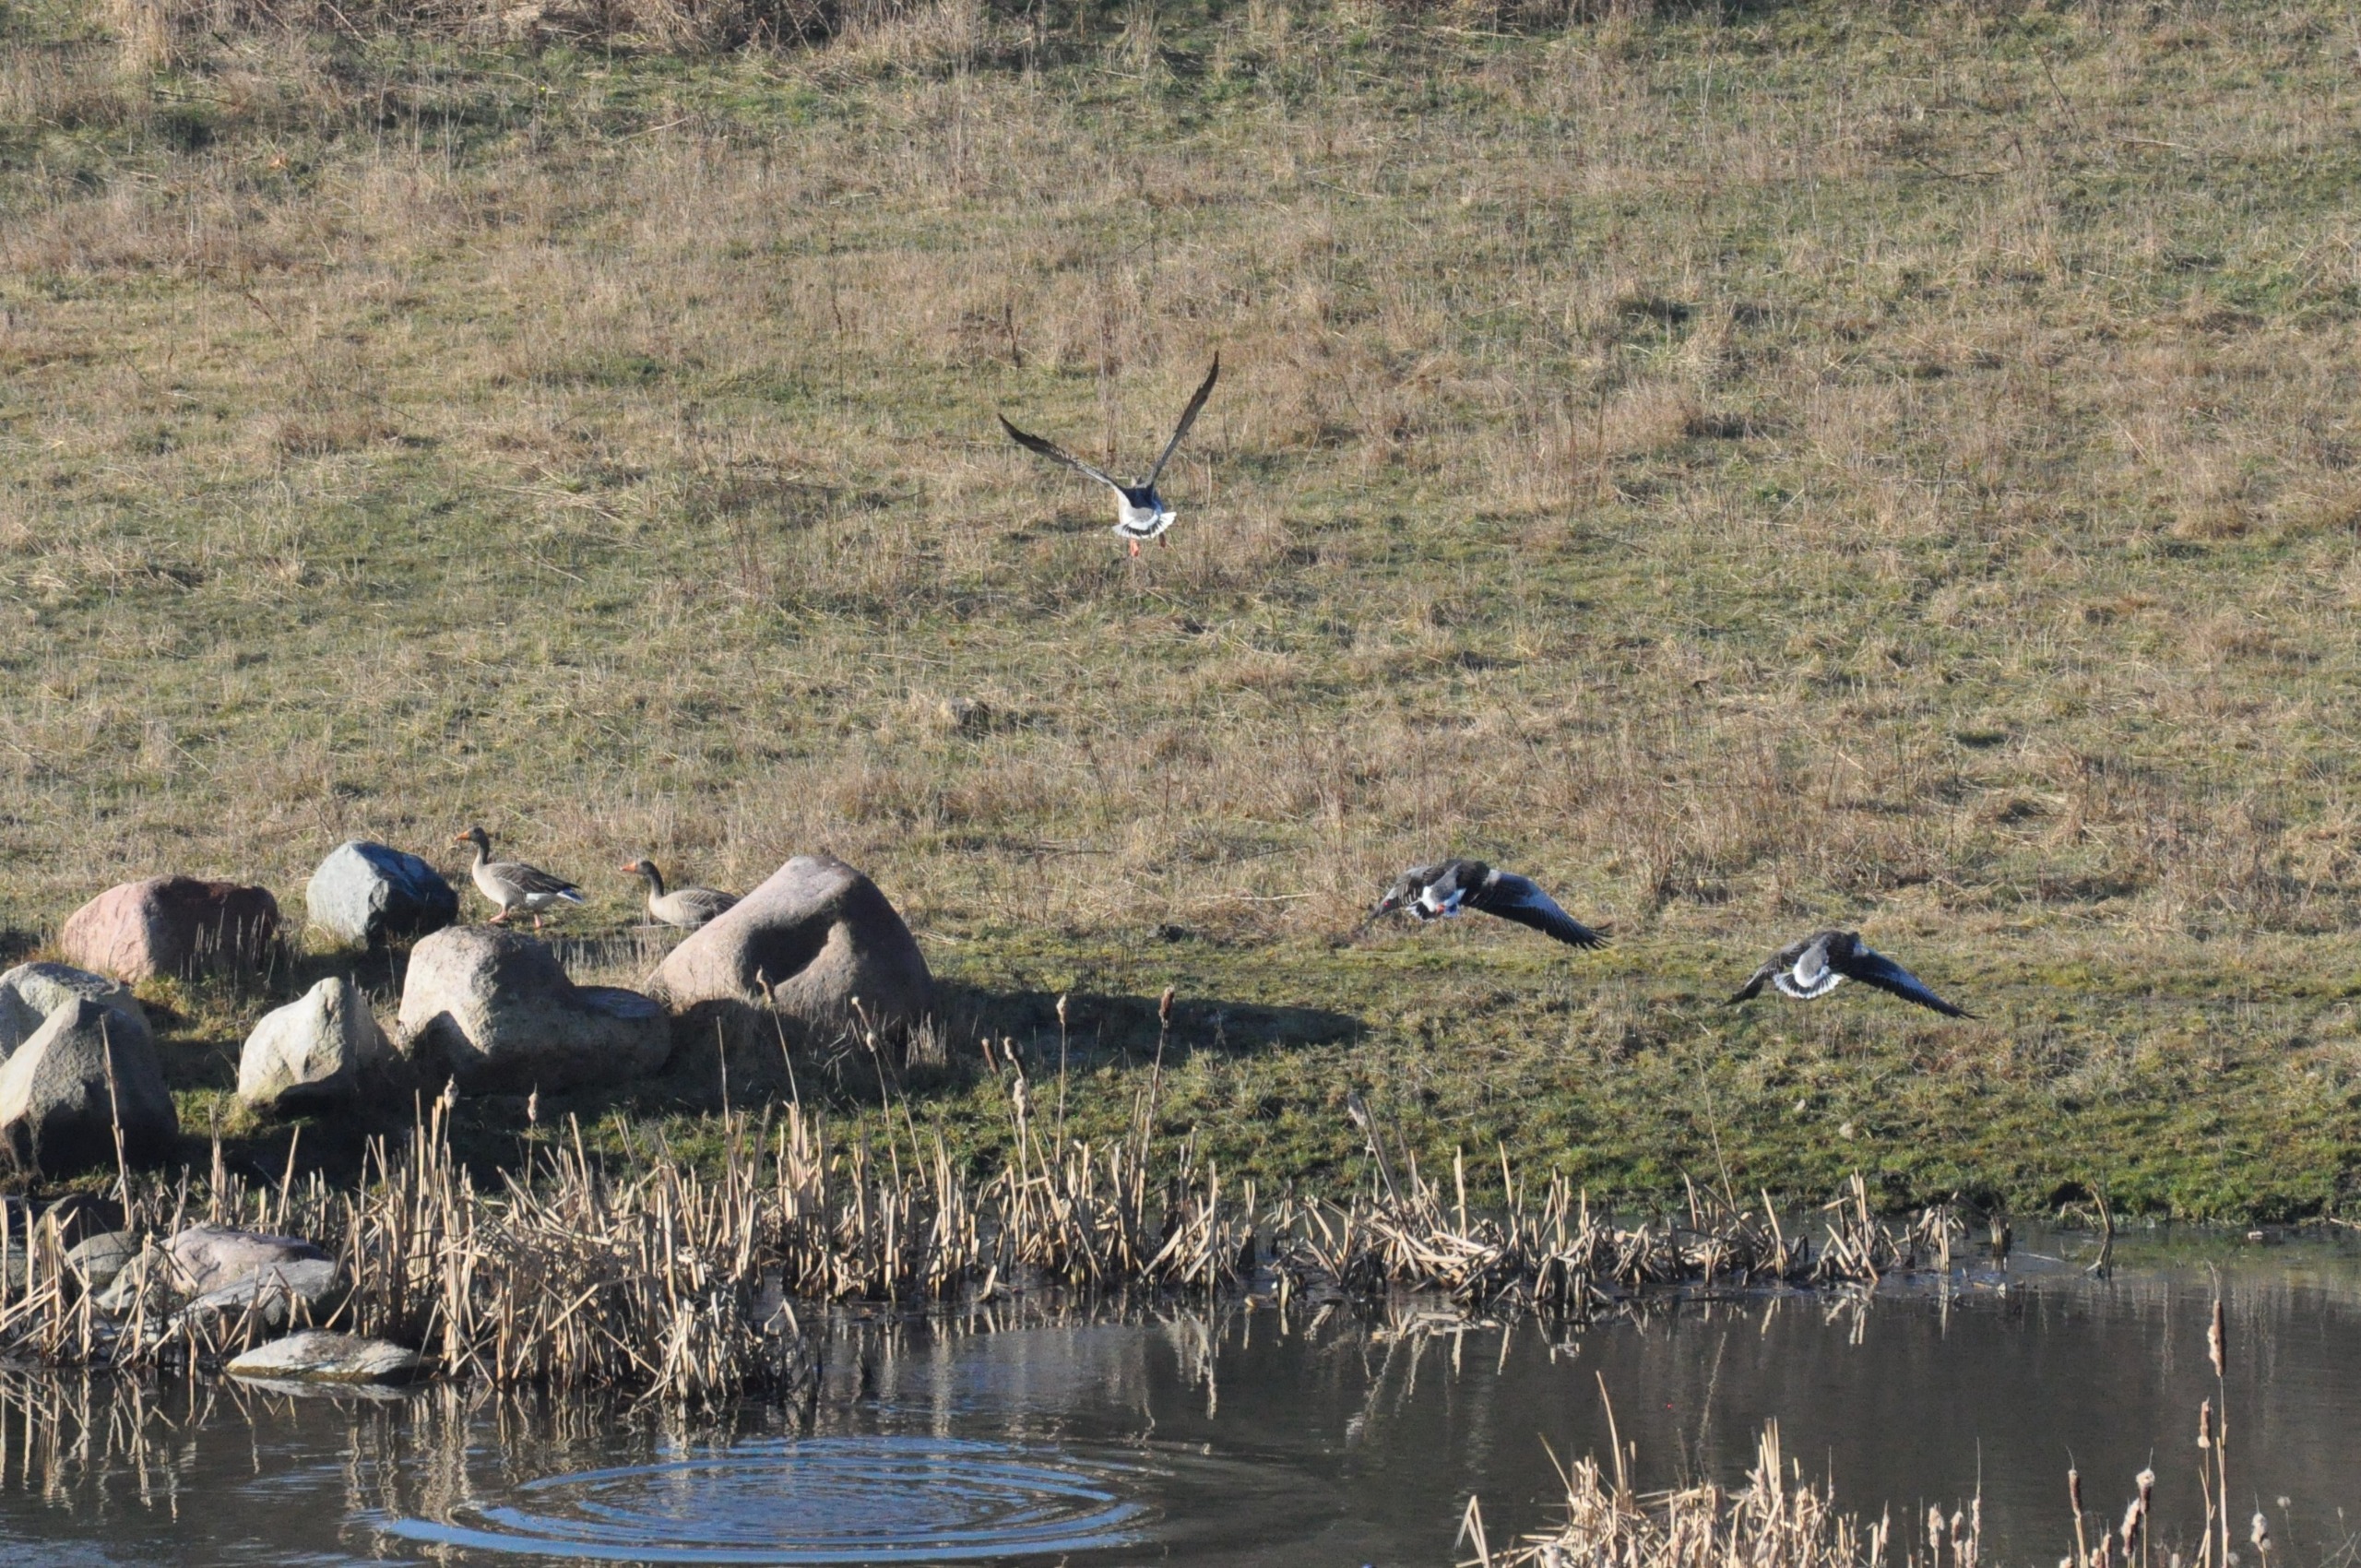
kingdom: Animalia
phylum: Chordata
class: Aves
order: Anseriformes
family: Anatidae
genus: Anser
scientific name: Anser anser
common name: Grågås
